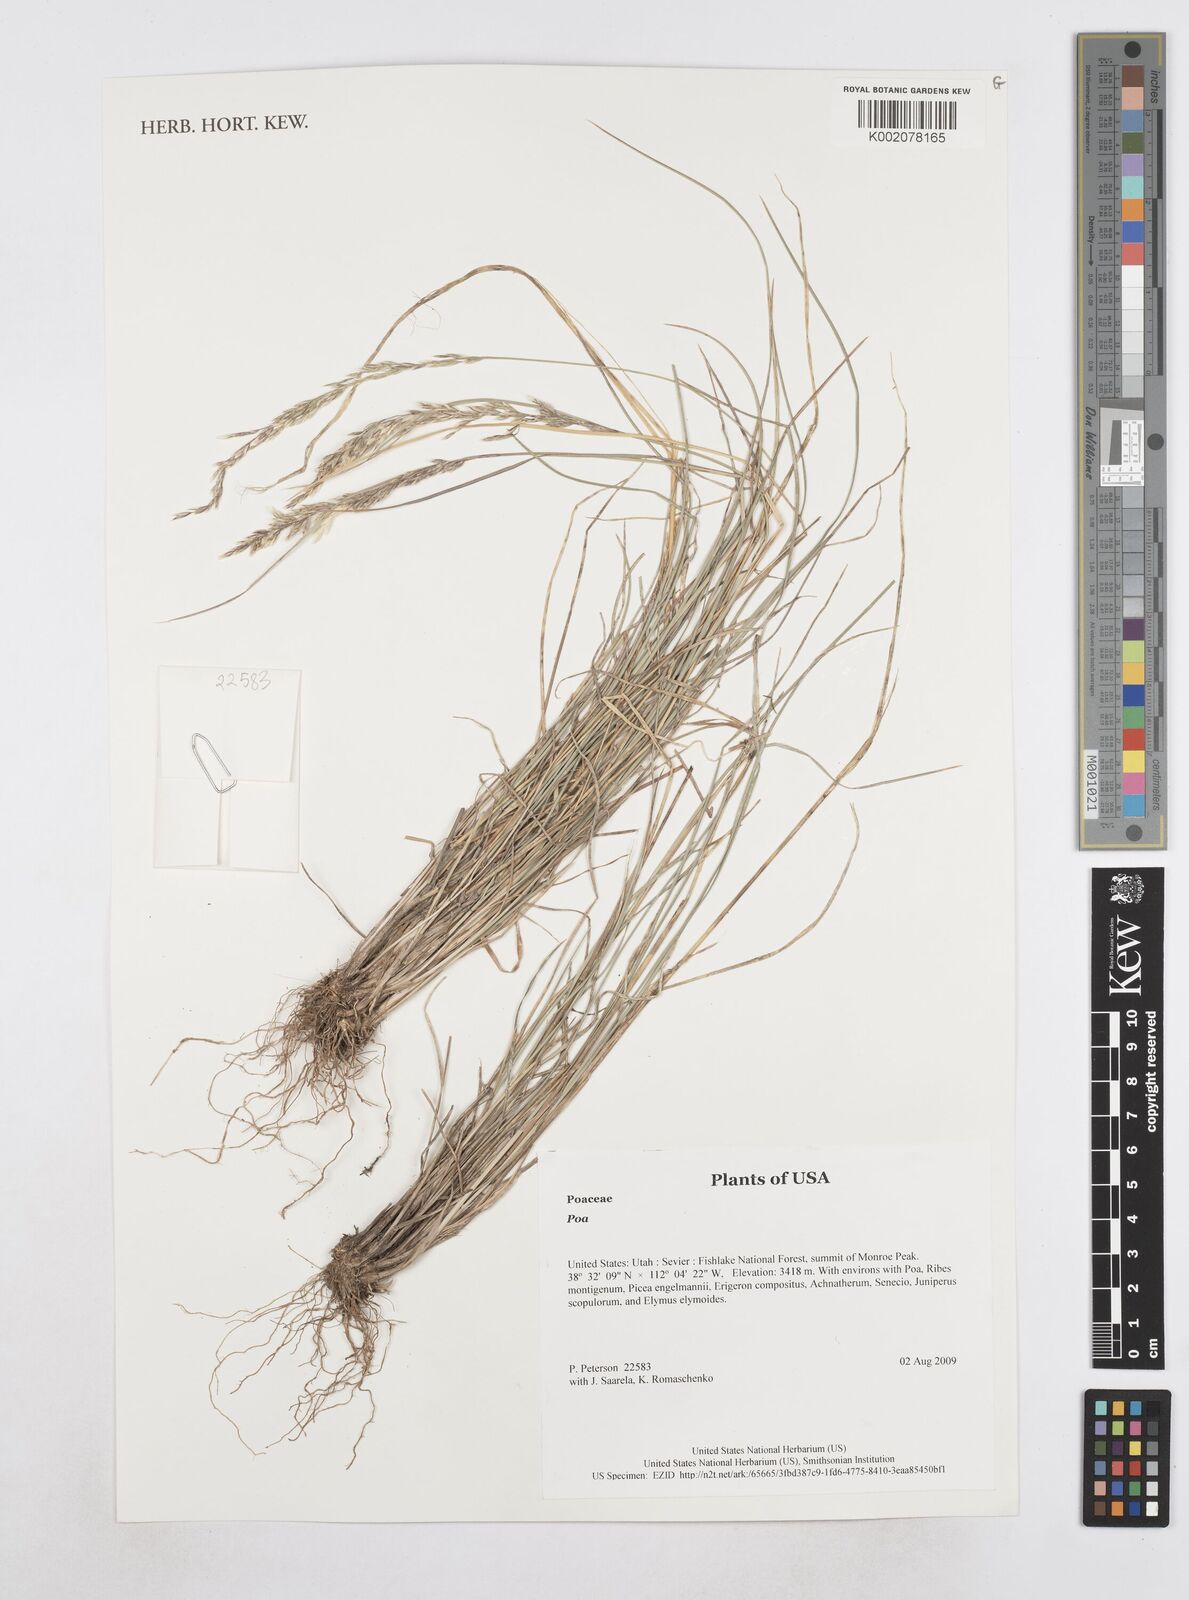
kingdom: Plantae
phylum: Tracheophyta
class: Liliopsida
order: Poales
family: Poaceae
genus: Poa
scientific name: Poa
